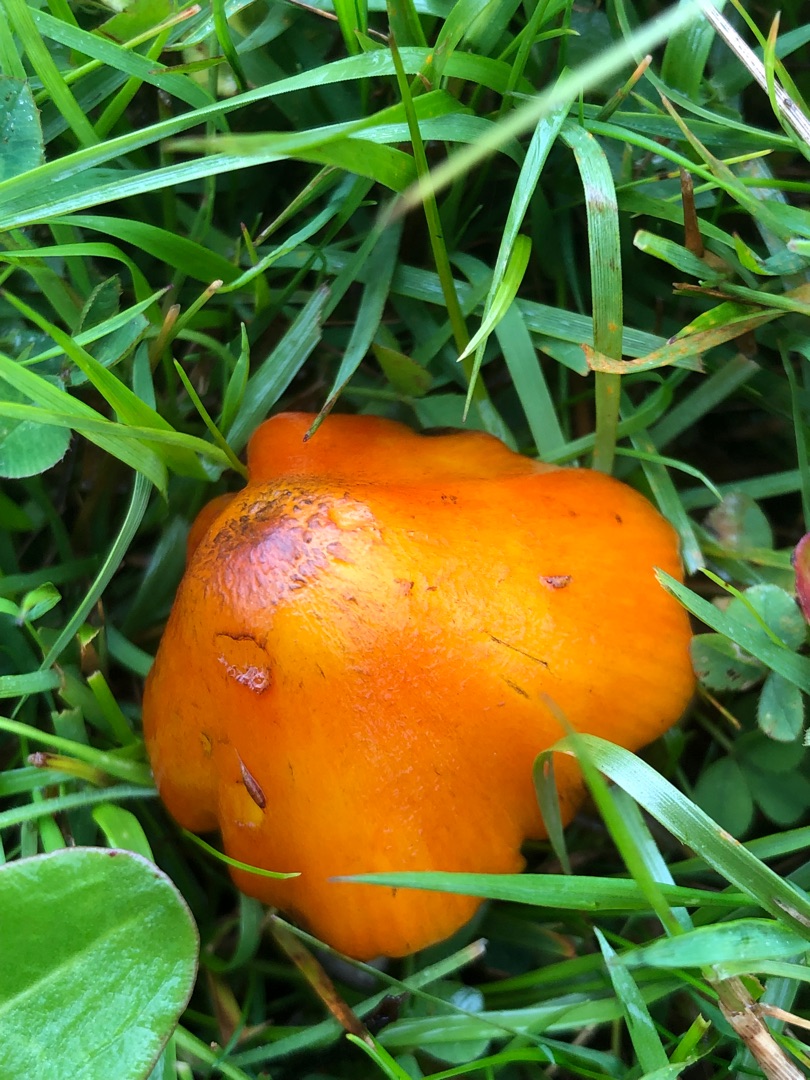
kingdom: Fungi
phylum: Basidiomycota
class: Agaricomycetes
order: Agaricales
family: Hygrophoraceae
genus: Hygrocybe
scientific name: Hygrocybe conica
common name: Kegle-vokshat
